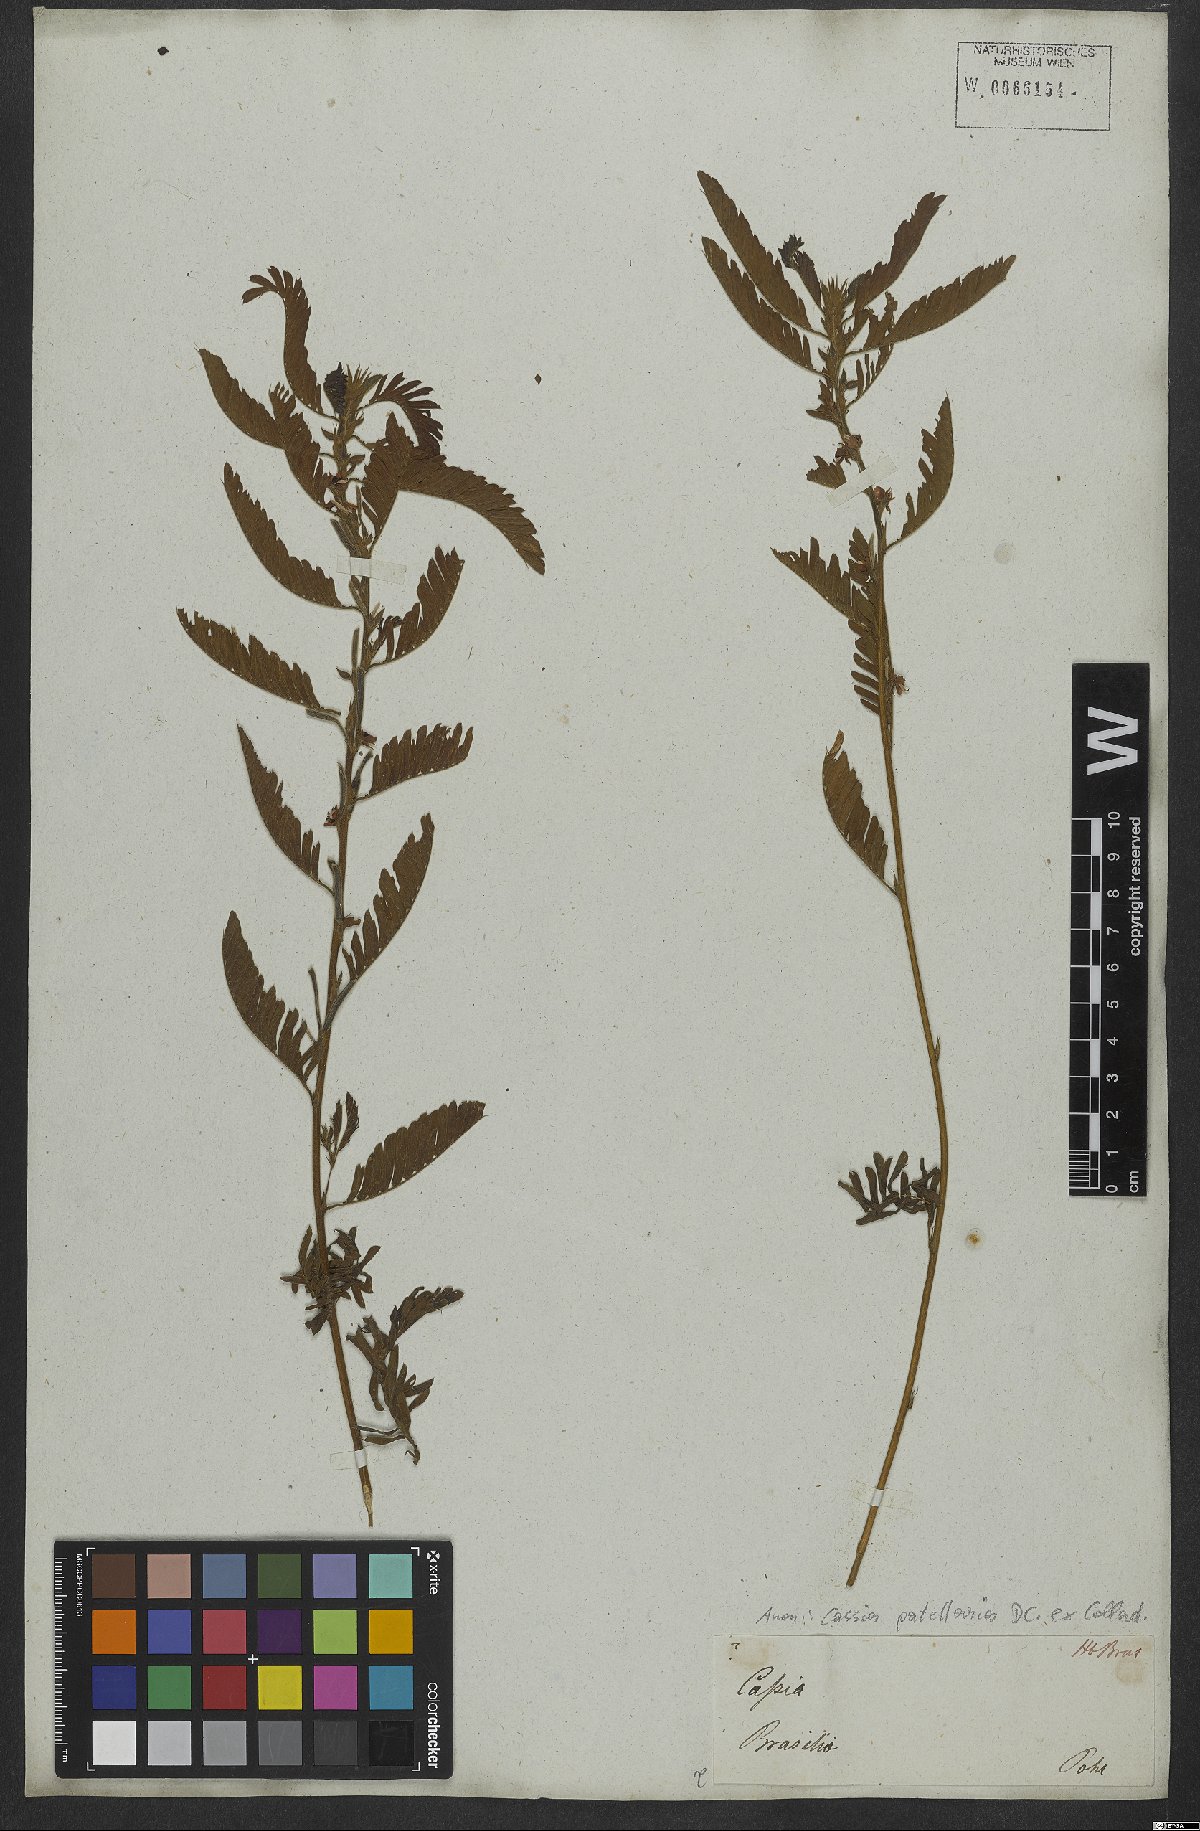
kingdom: Plantae
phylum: Tracheophyta
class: Magnoliopsida
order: Fabales
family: Fabaceae
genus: Chamaecrista
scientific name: Chamaecrista nictitans
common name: Sensitive cassia
